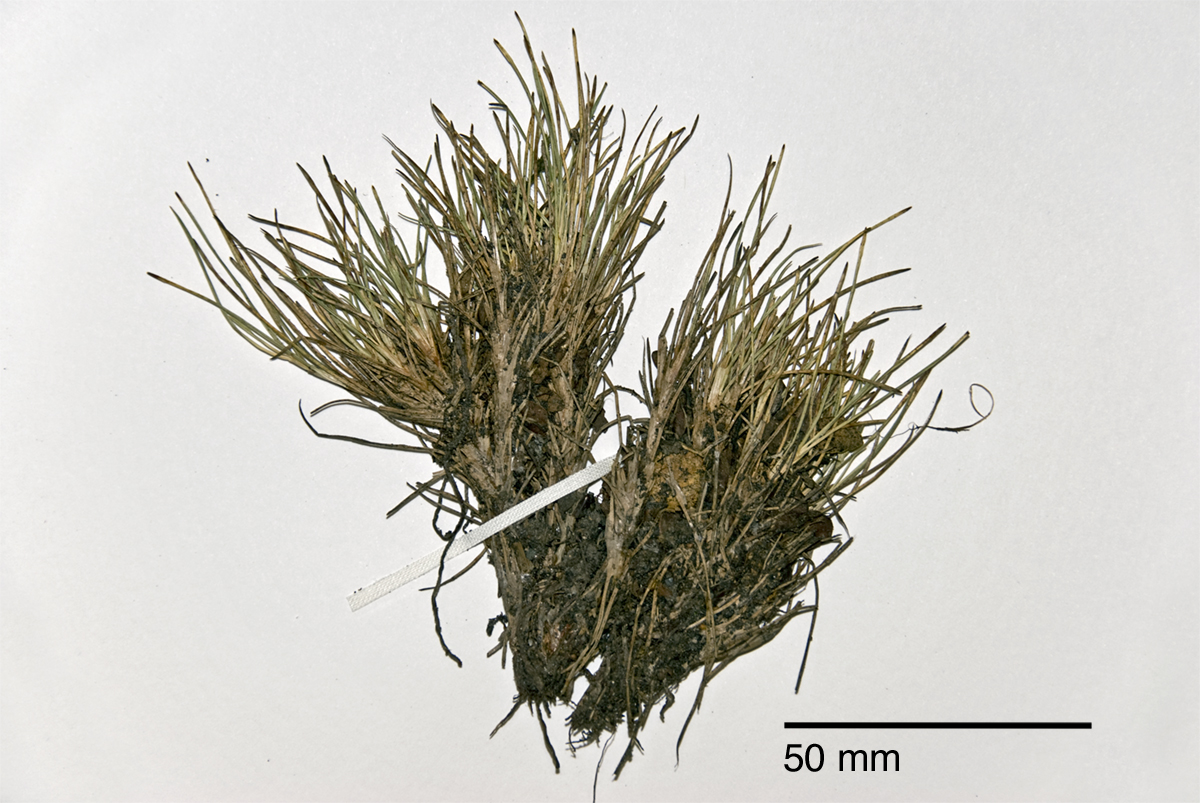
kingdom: Plantae
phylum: Tracheophyta
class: Liliopsida
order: Poales
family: Cyperaceae
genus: Oreobolus
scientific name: Oreobolus strictus
